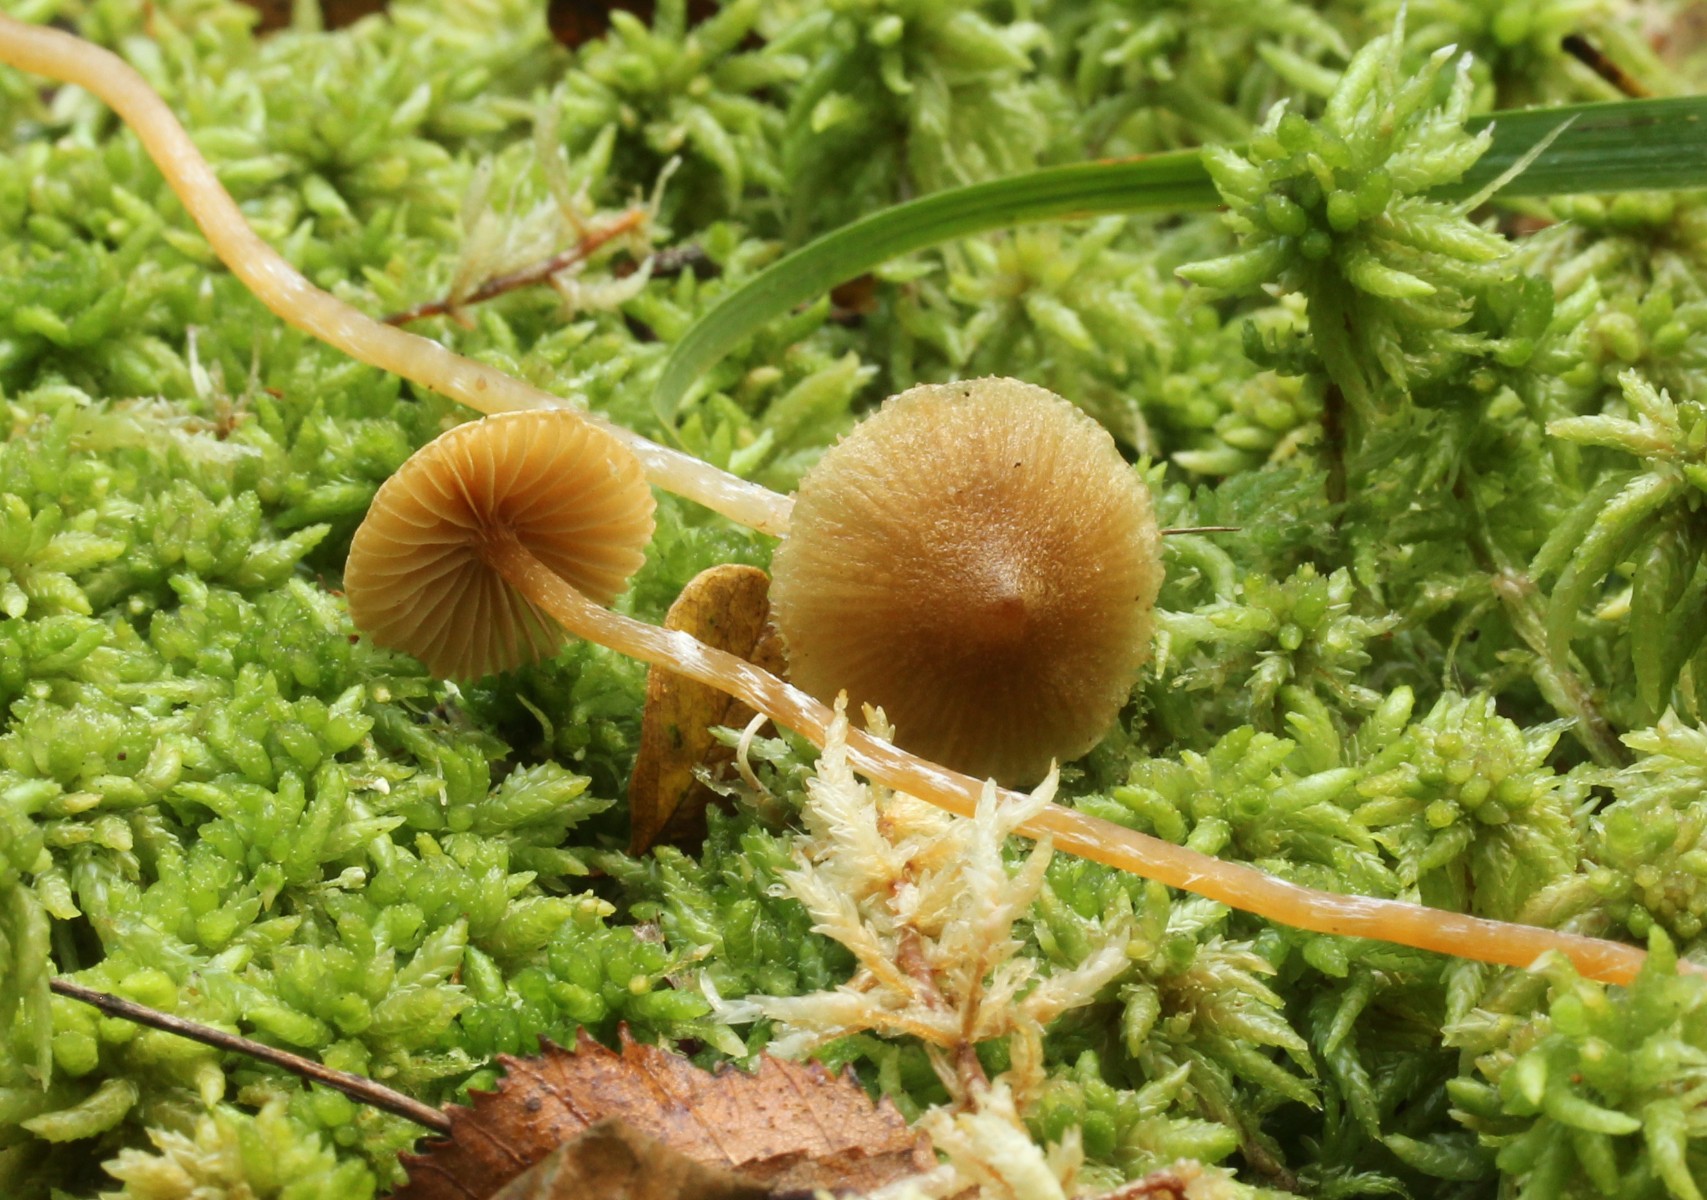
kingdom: Fungi
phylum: Basidiomycota
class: Agaricomycetes
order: Agaricales
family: Hymenogastraceae
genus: Galerina
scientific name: Galerina paludosa
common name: mose-hjelmhat
